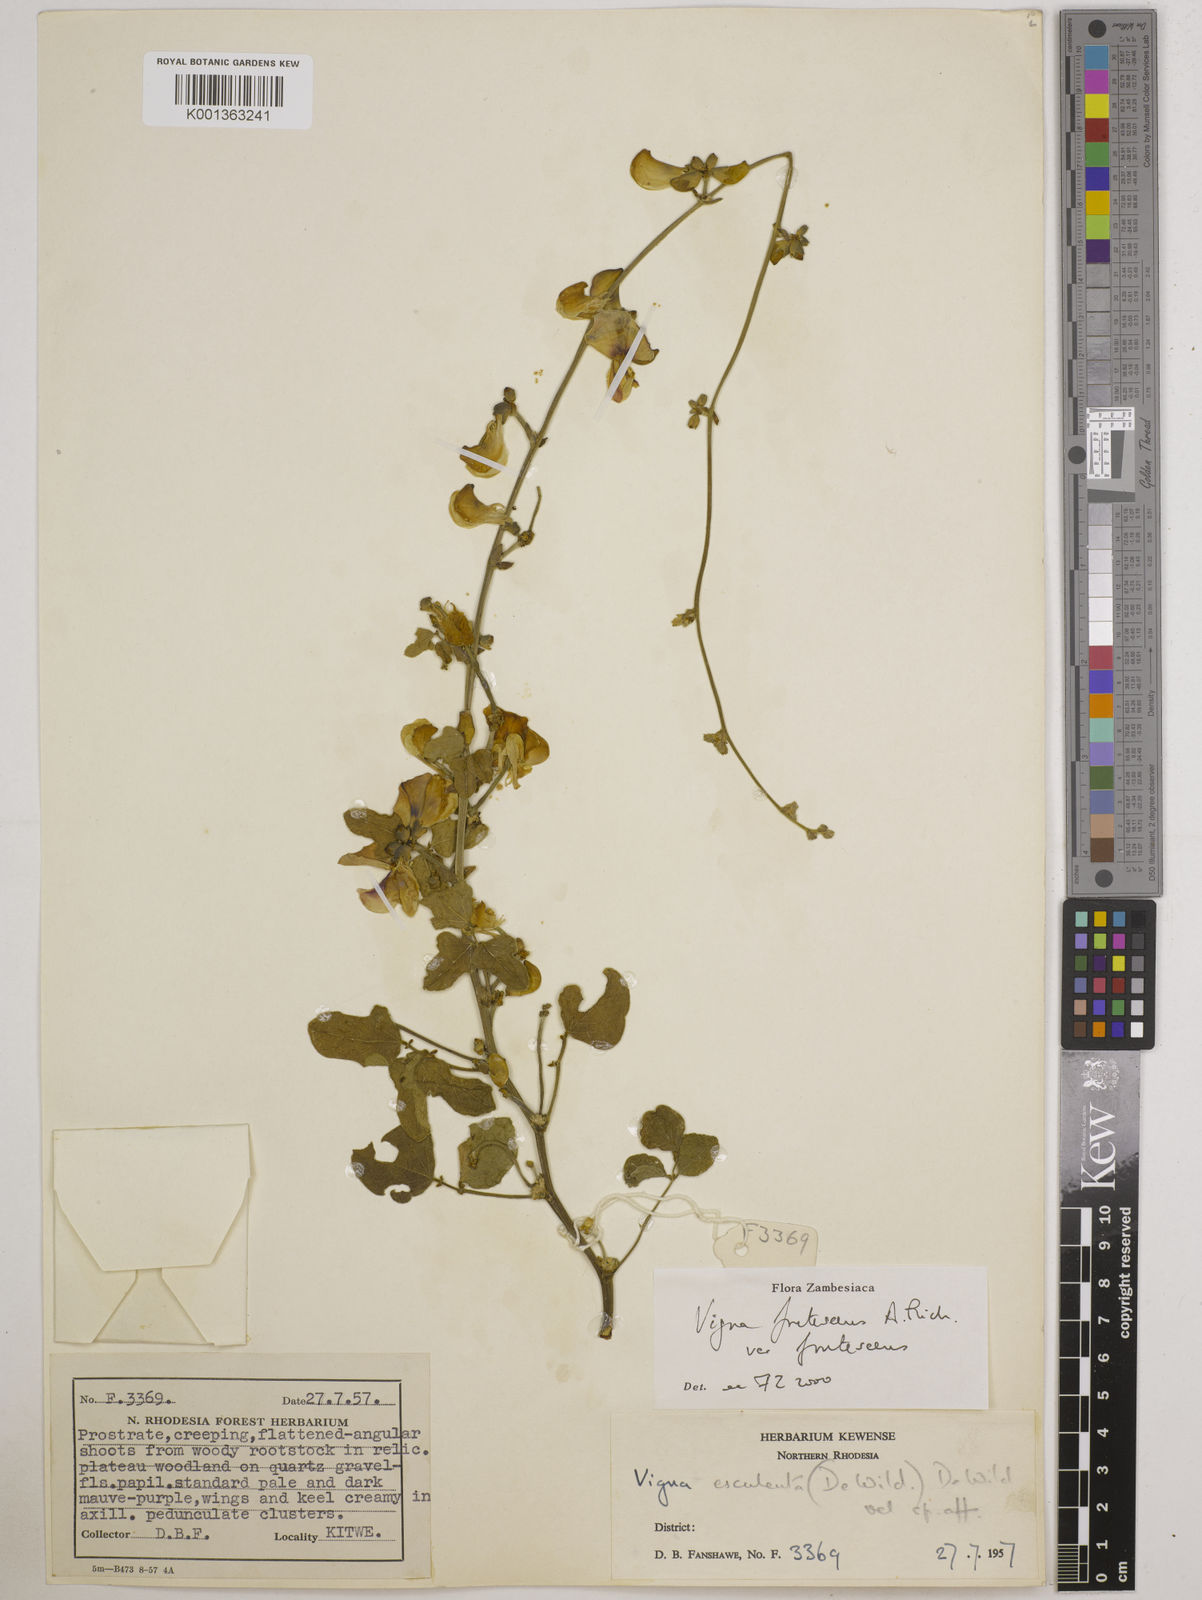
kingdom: Plantae
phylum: Tracheophyta
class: Magnoliopsida
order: Fabales
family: Fabaceae
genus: Vigna
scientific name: Vigna
